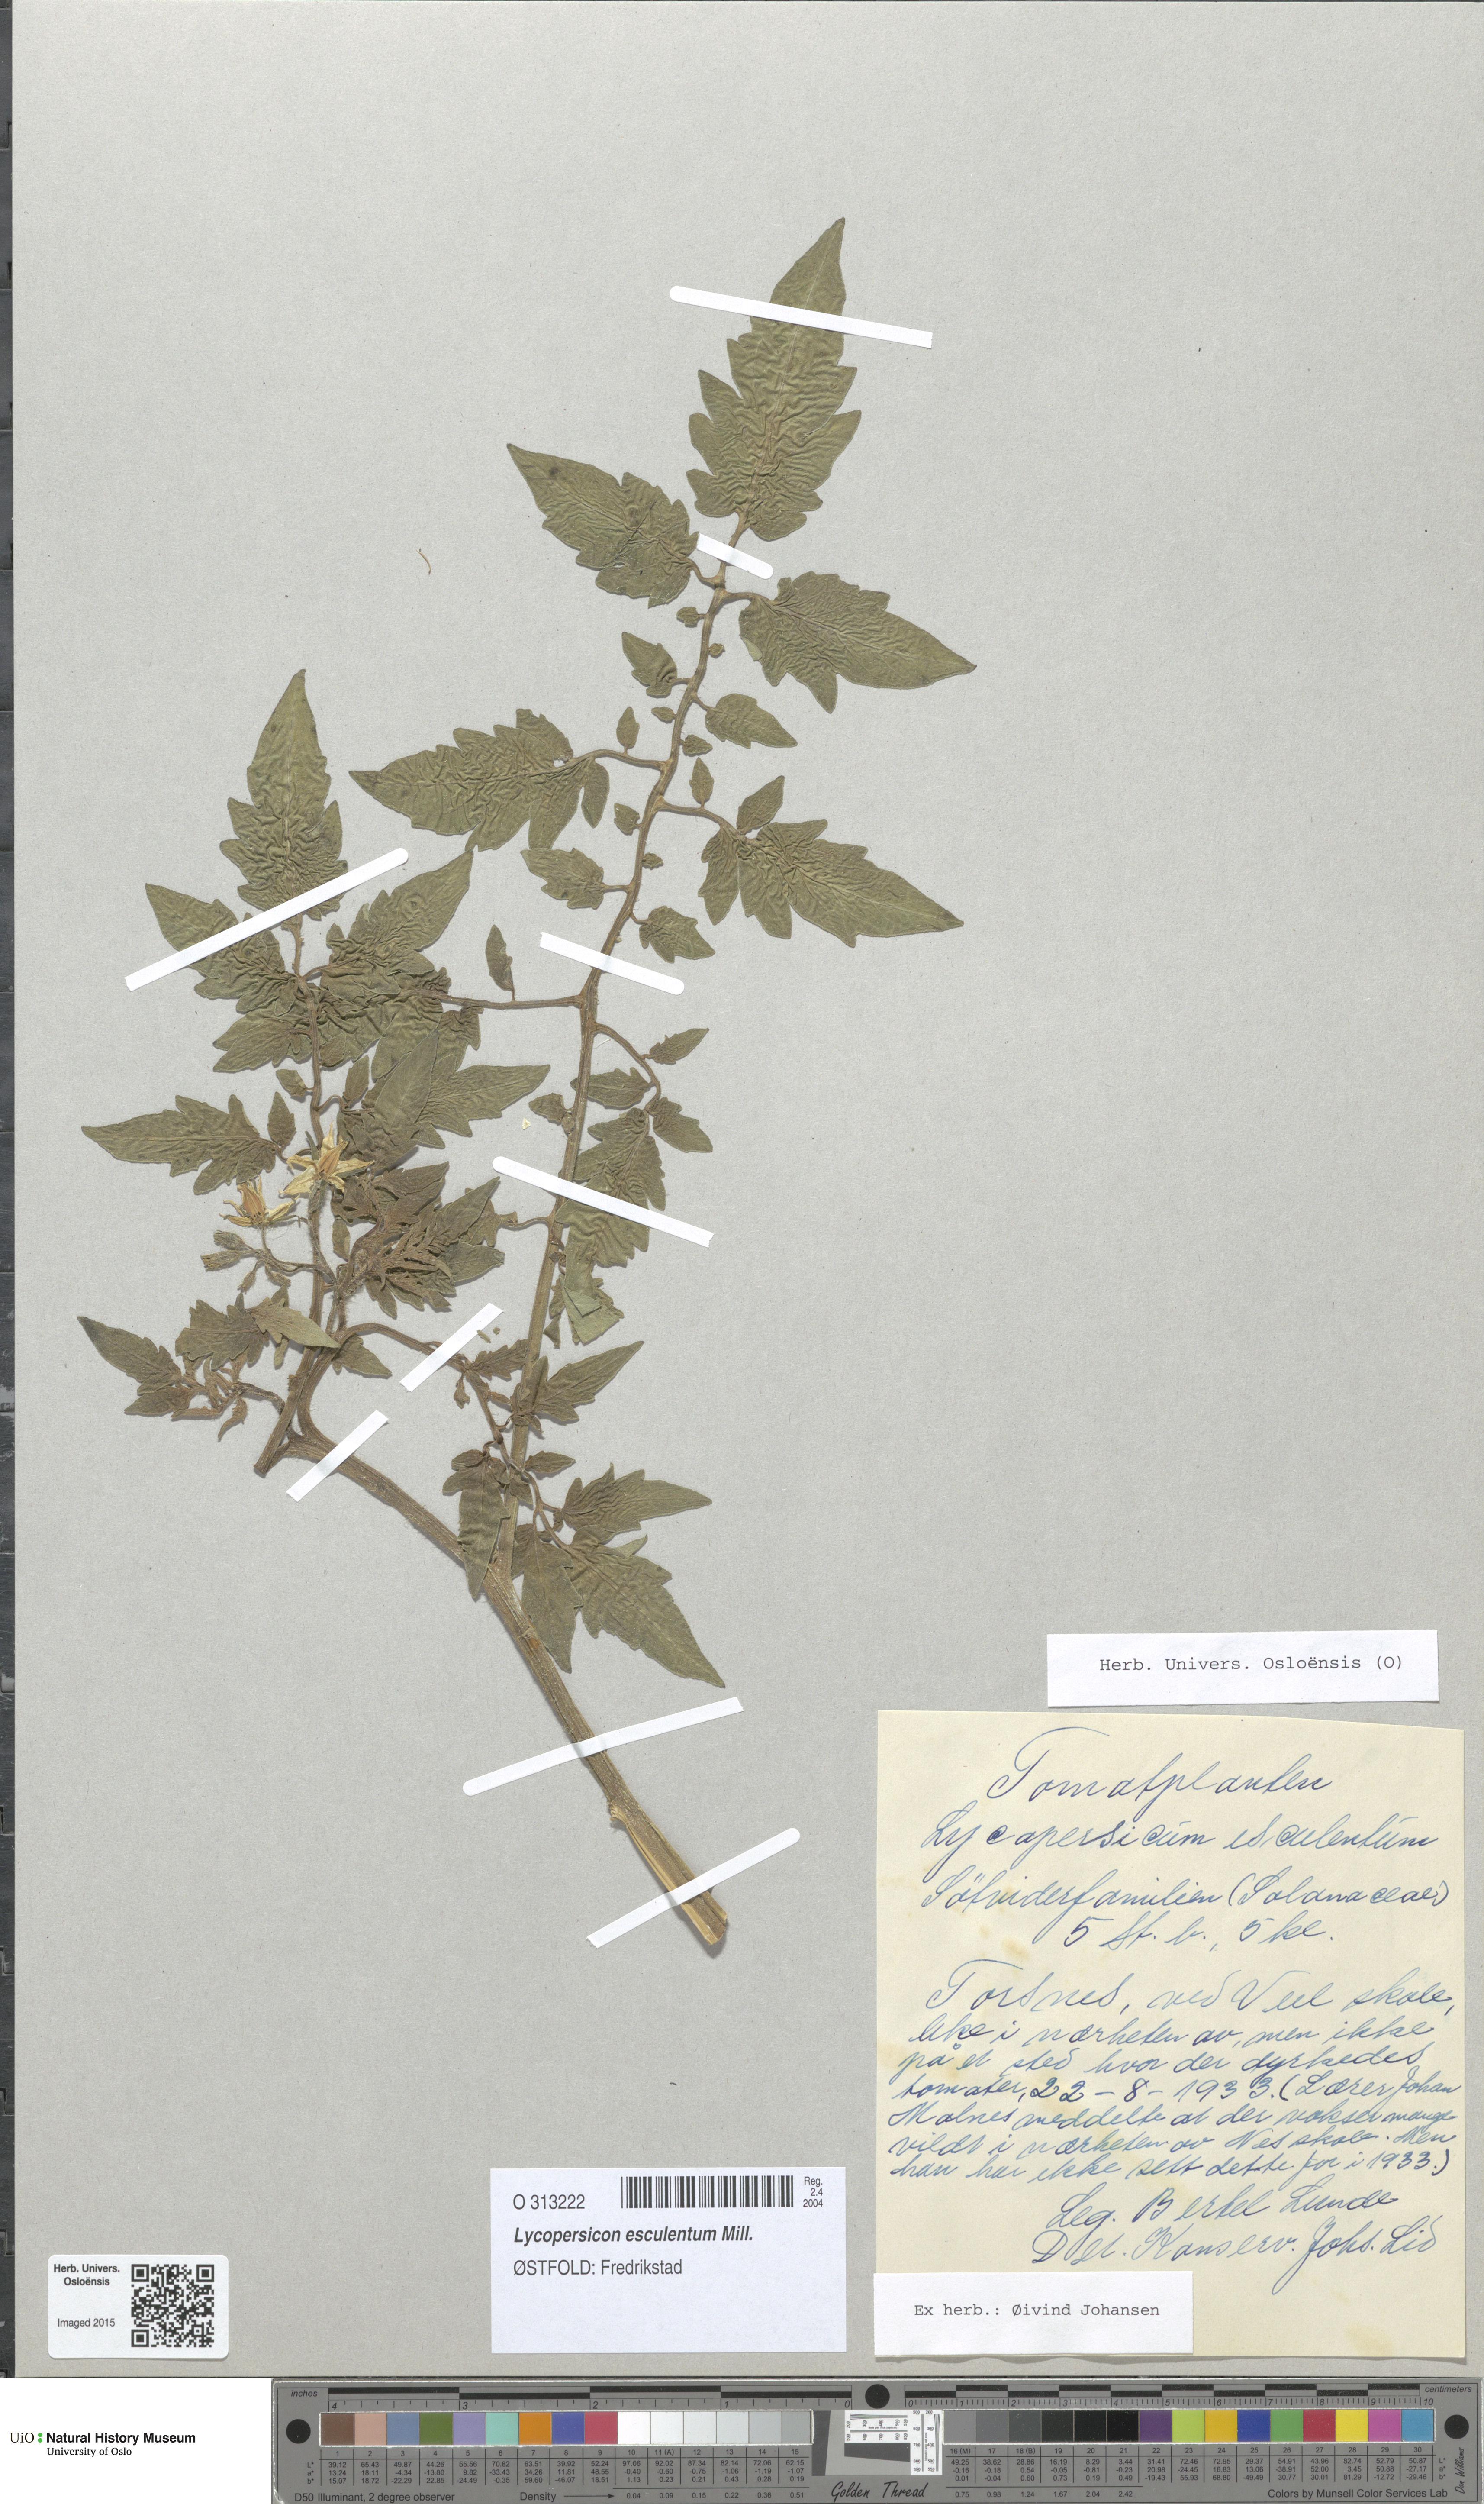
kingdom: Plantae
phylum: Tracheophyta
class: Magnoliopsida
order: Solanales
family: Solanaceae
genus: Solanum
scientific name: Solanum
